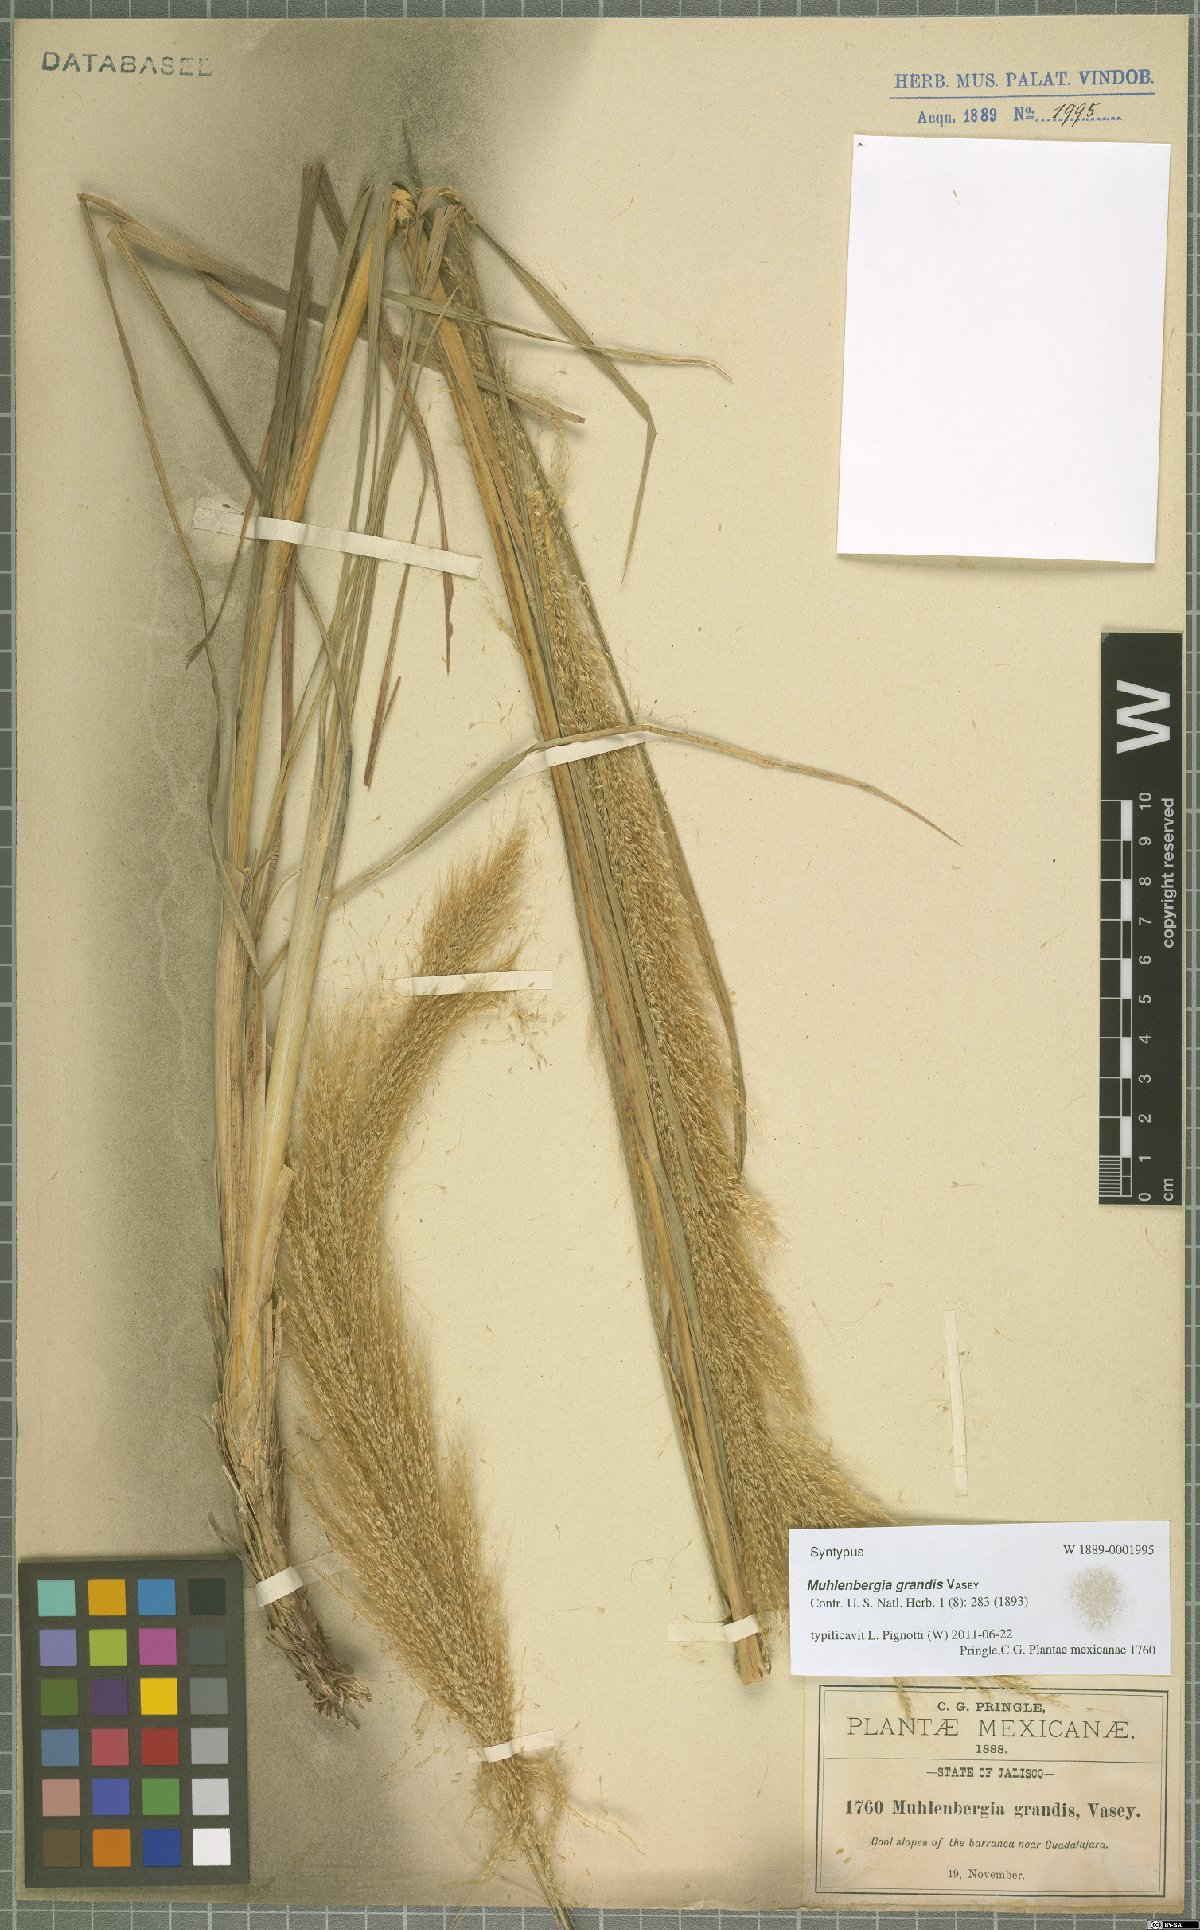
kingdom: Plantae
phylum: Tracheophyta
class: Liliopsida
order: Poales
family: Poaceae
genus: Muhlenbergia
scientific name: Muhlenbergia grandis
